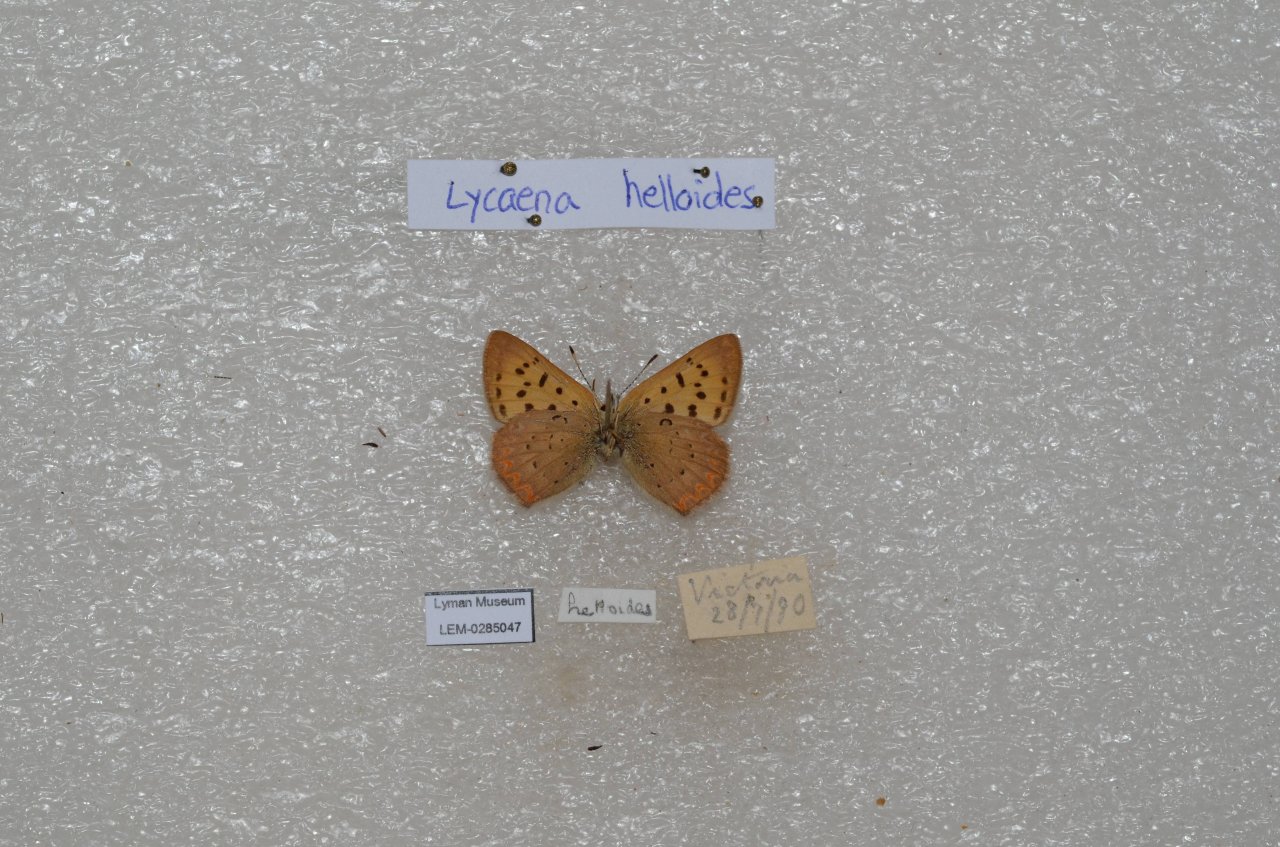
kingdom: Animalia
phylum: Arthropoda
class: Insecta
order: Lepidoptera
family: Sesiidae
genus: Sesia
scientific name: Sesia Lycaena helloides
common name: Purplish Copper
